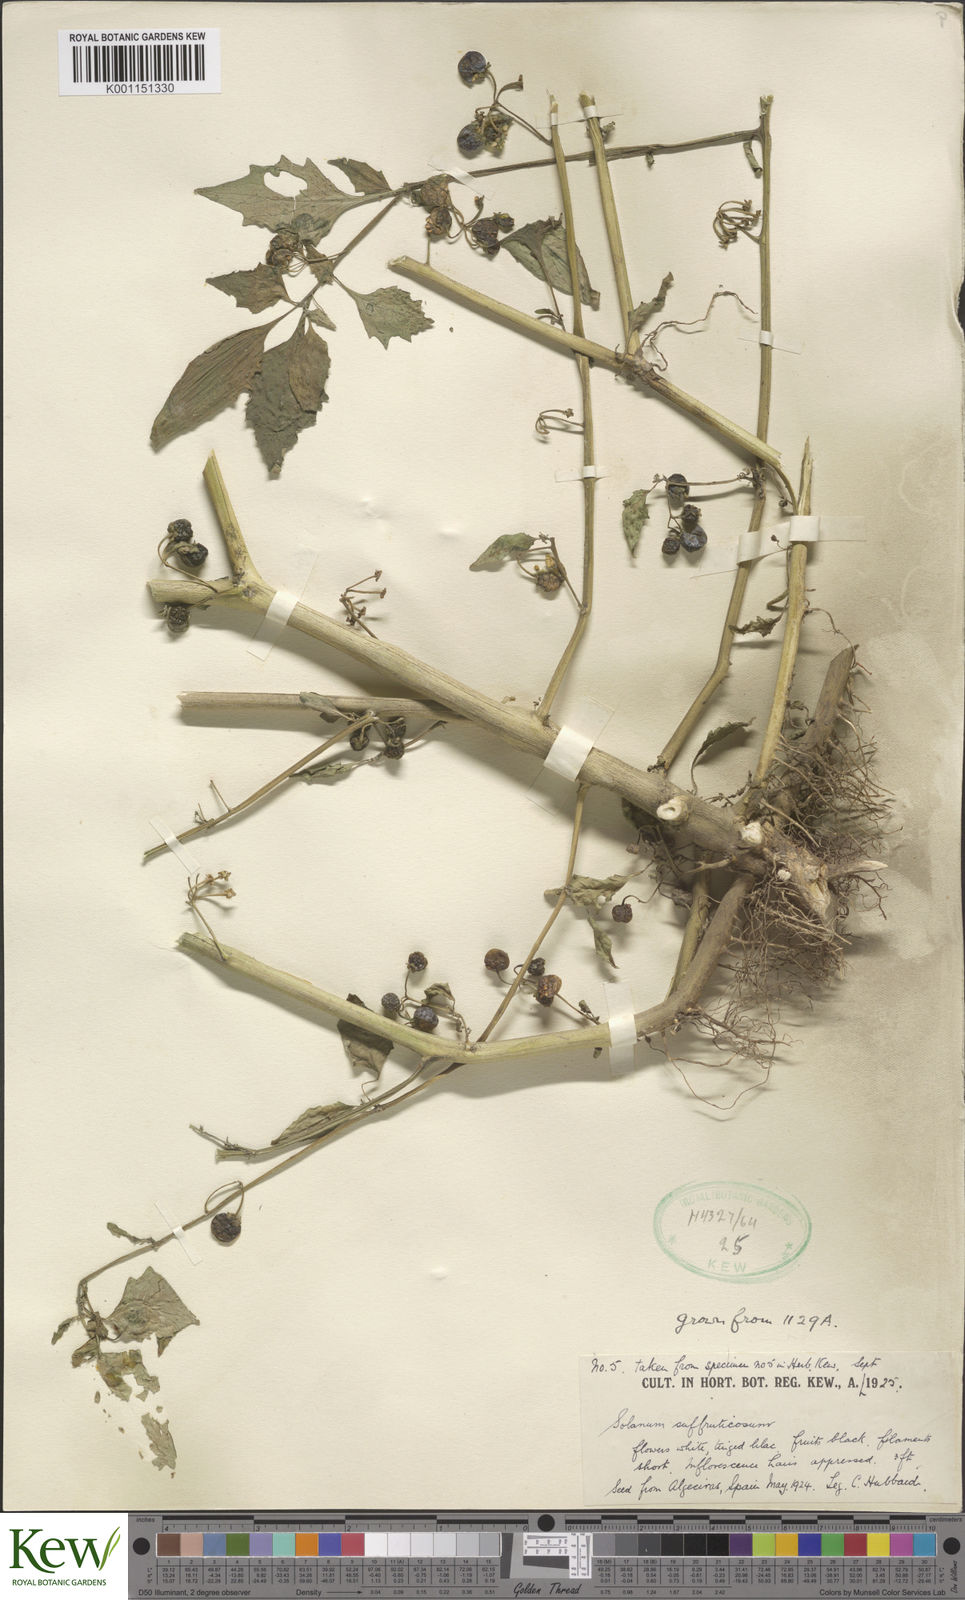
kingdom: Plantae
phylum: Tracheophyta
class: Magnoliopsida
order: Solanales
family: Solanaceae
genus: Solanum
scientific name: Solanum nigrum
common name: Black nightshade
